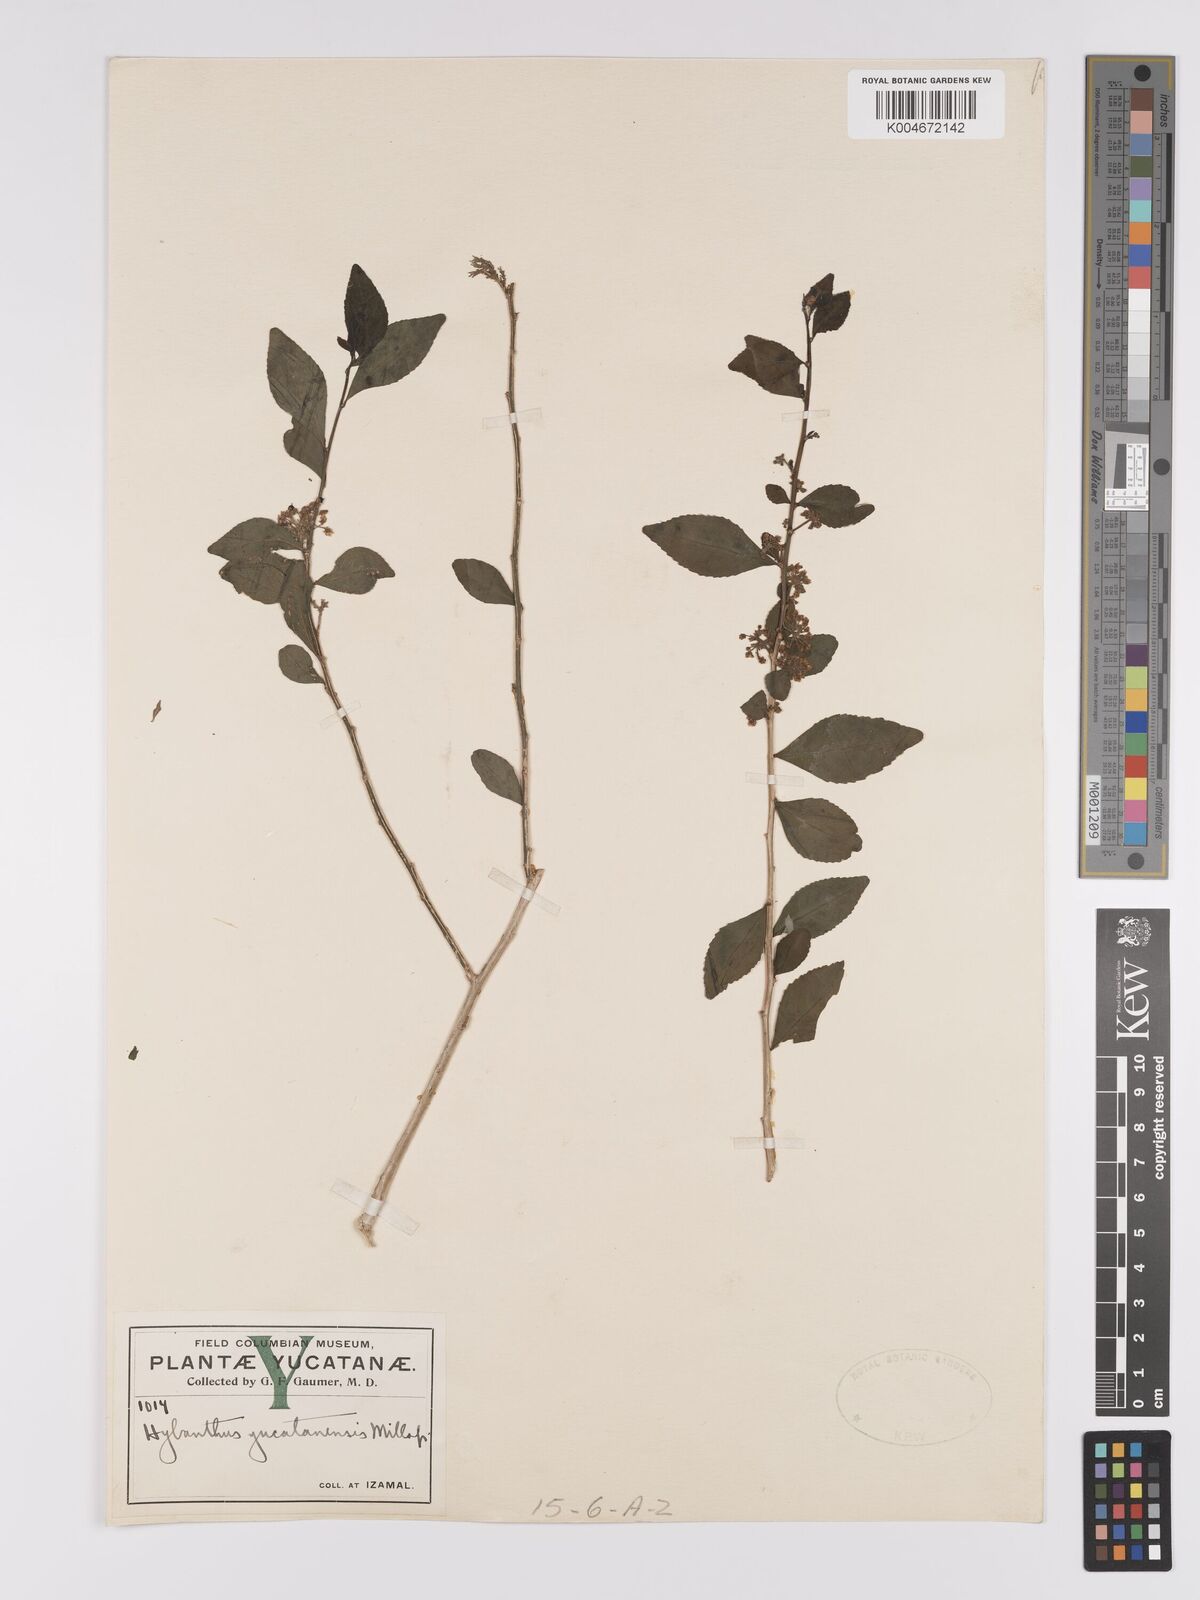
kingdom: Plantae
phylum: Tracheophyta
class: Magnoliopsida
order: Malpighiales
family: Violaceae
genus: Hybanthus
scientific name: Hybanthus yucatanensis
